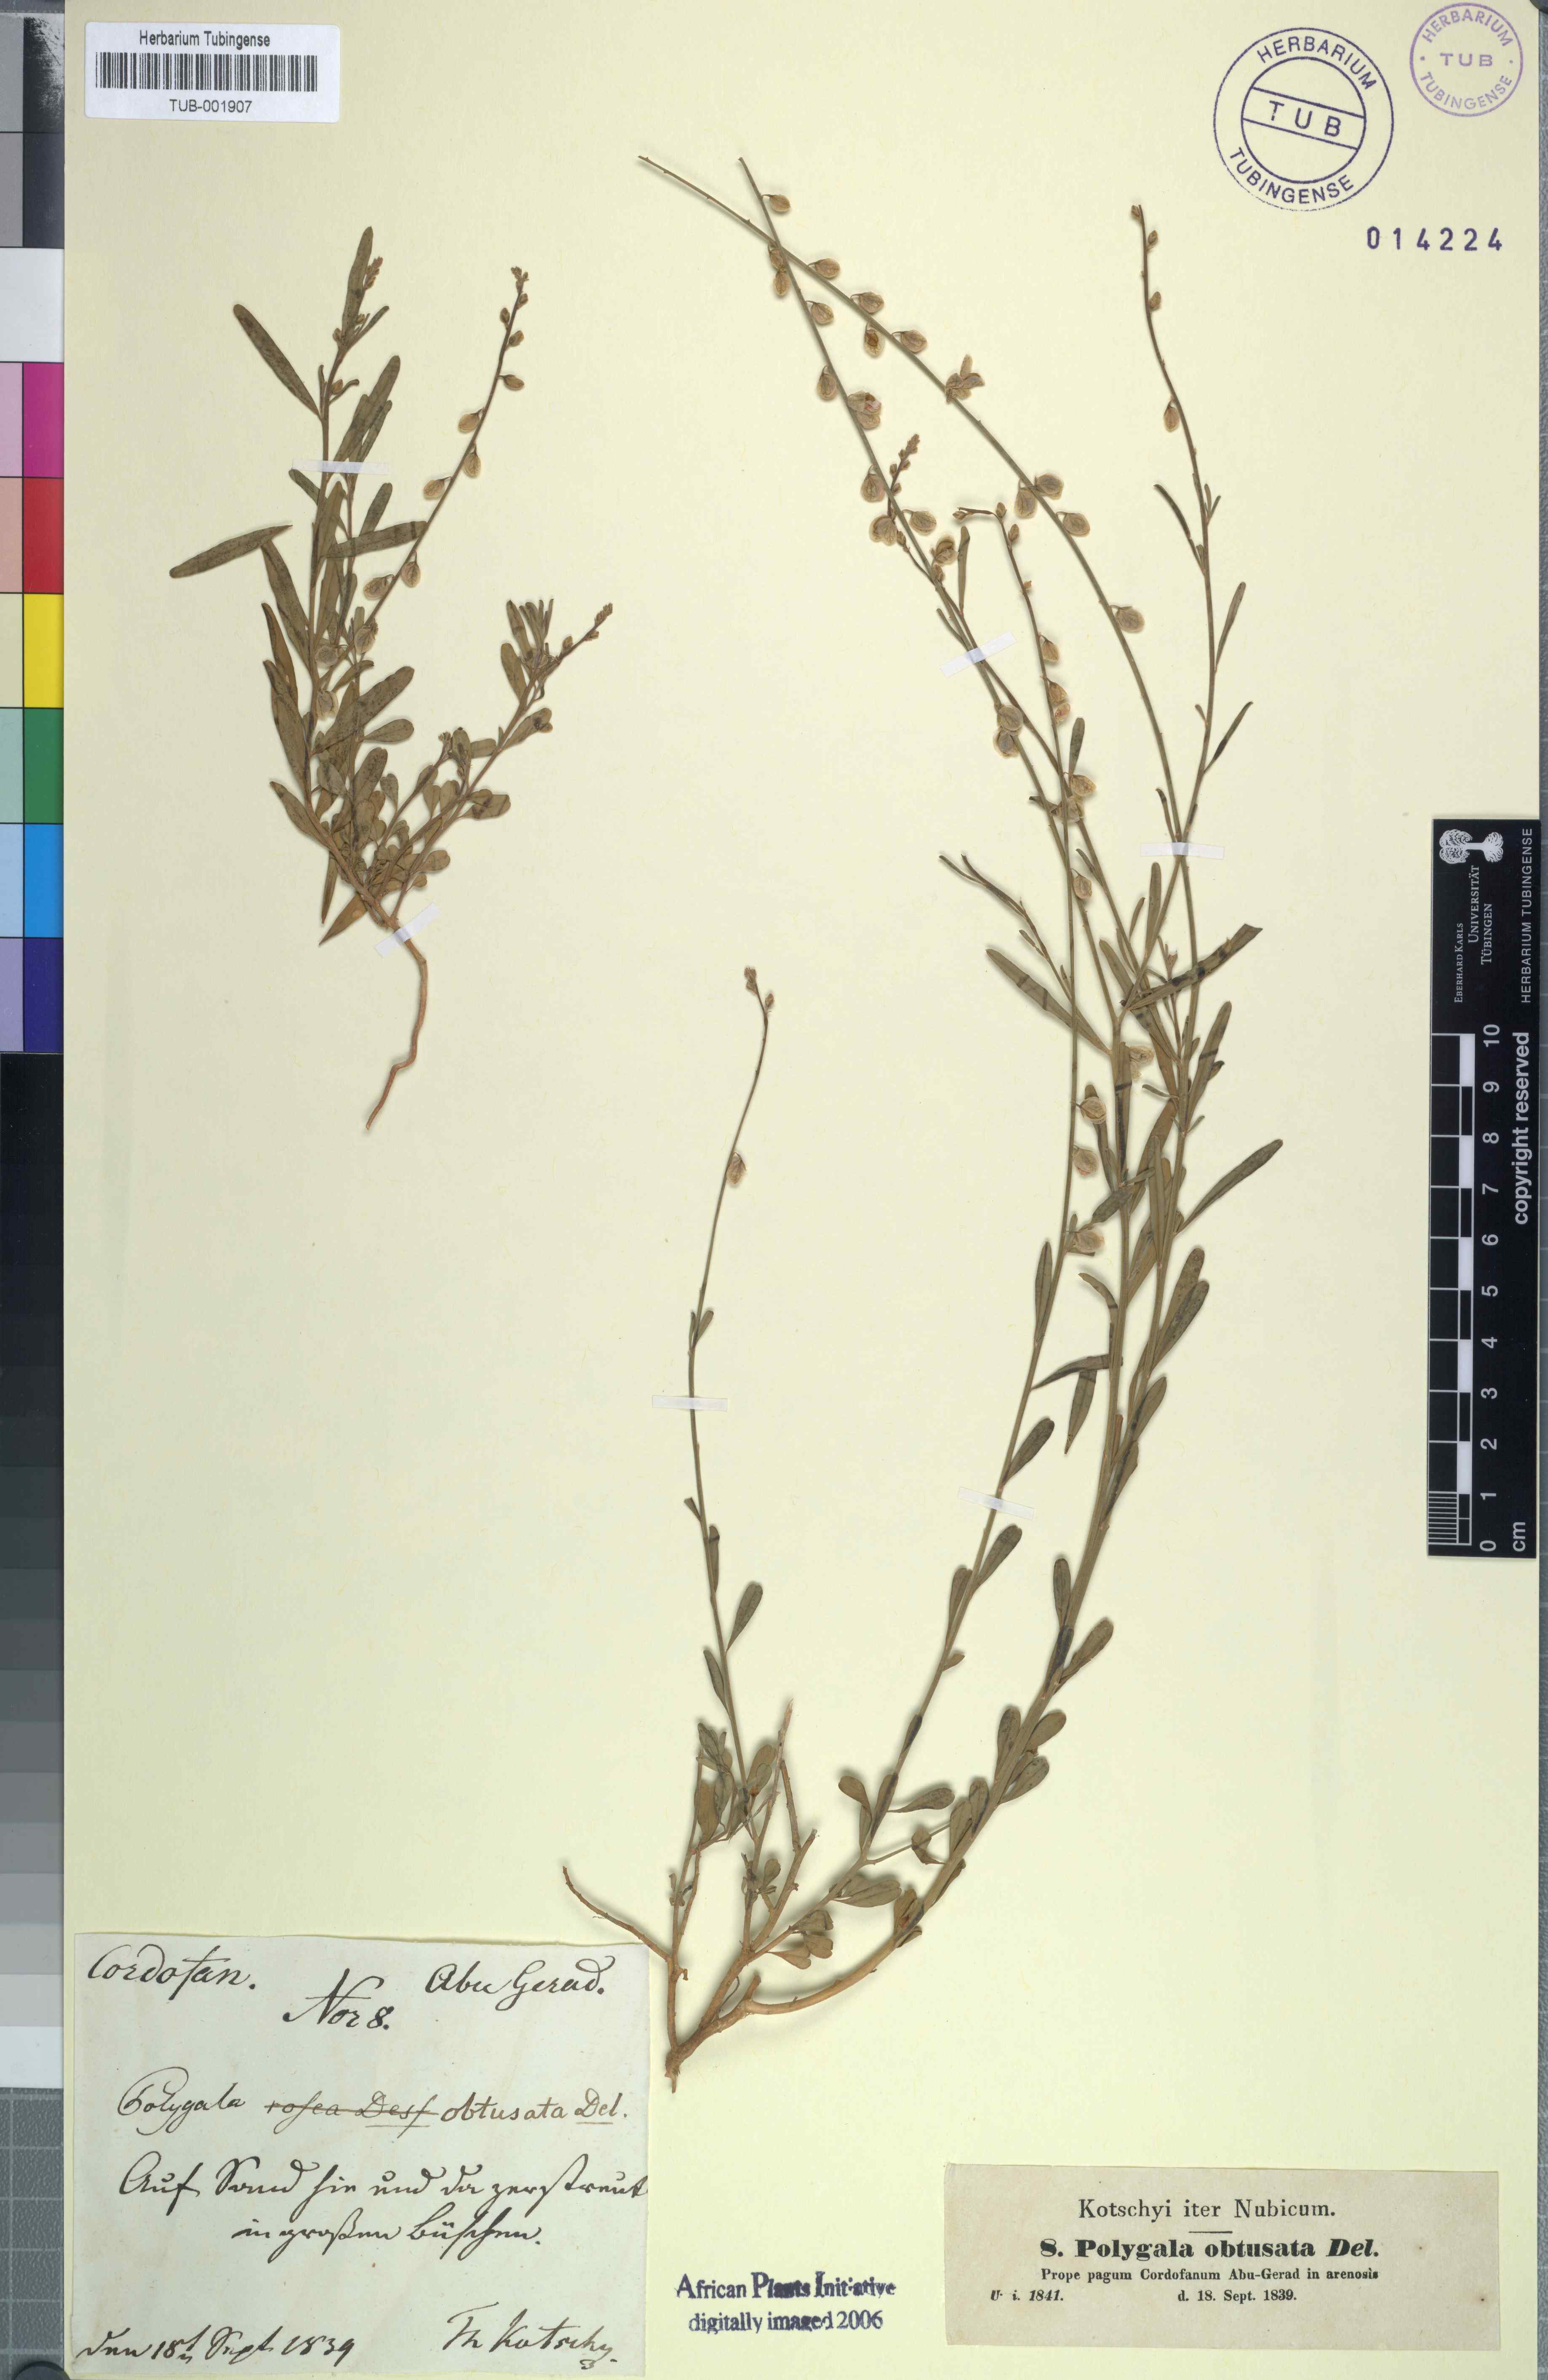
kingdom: Plantae
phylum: Tracheophyta
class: Magnoliopsida
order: Fabales
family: Polygalaceae
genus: Polygala
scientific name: Polygala erioptera
